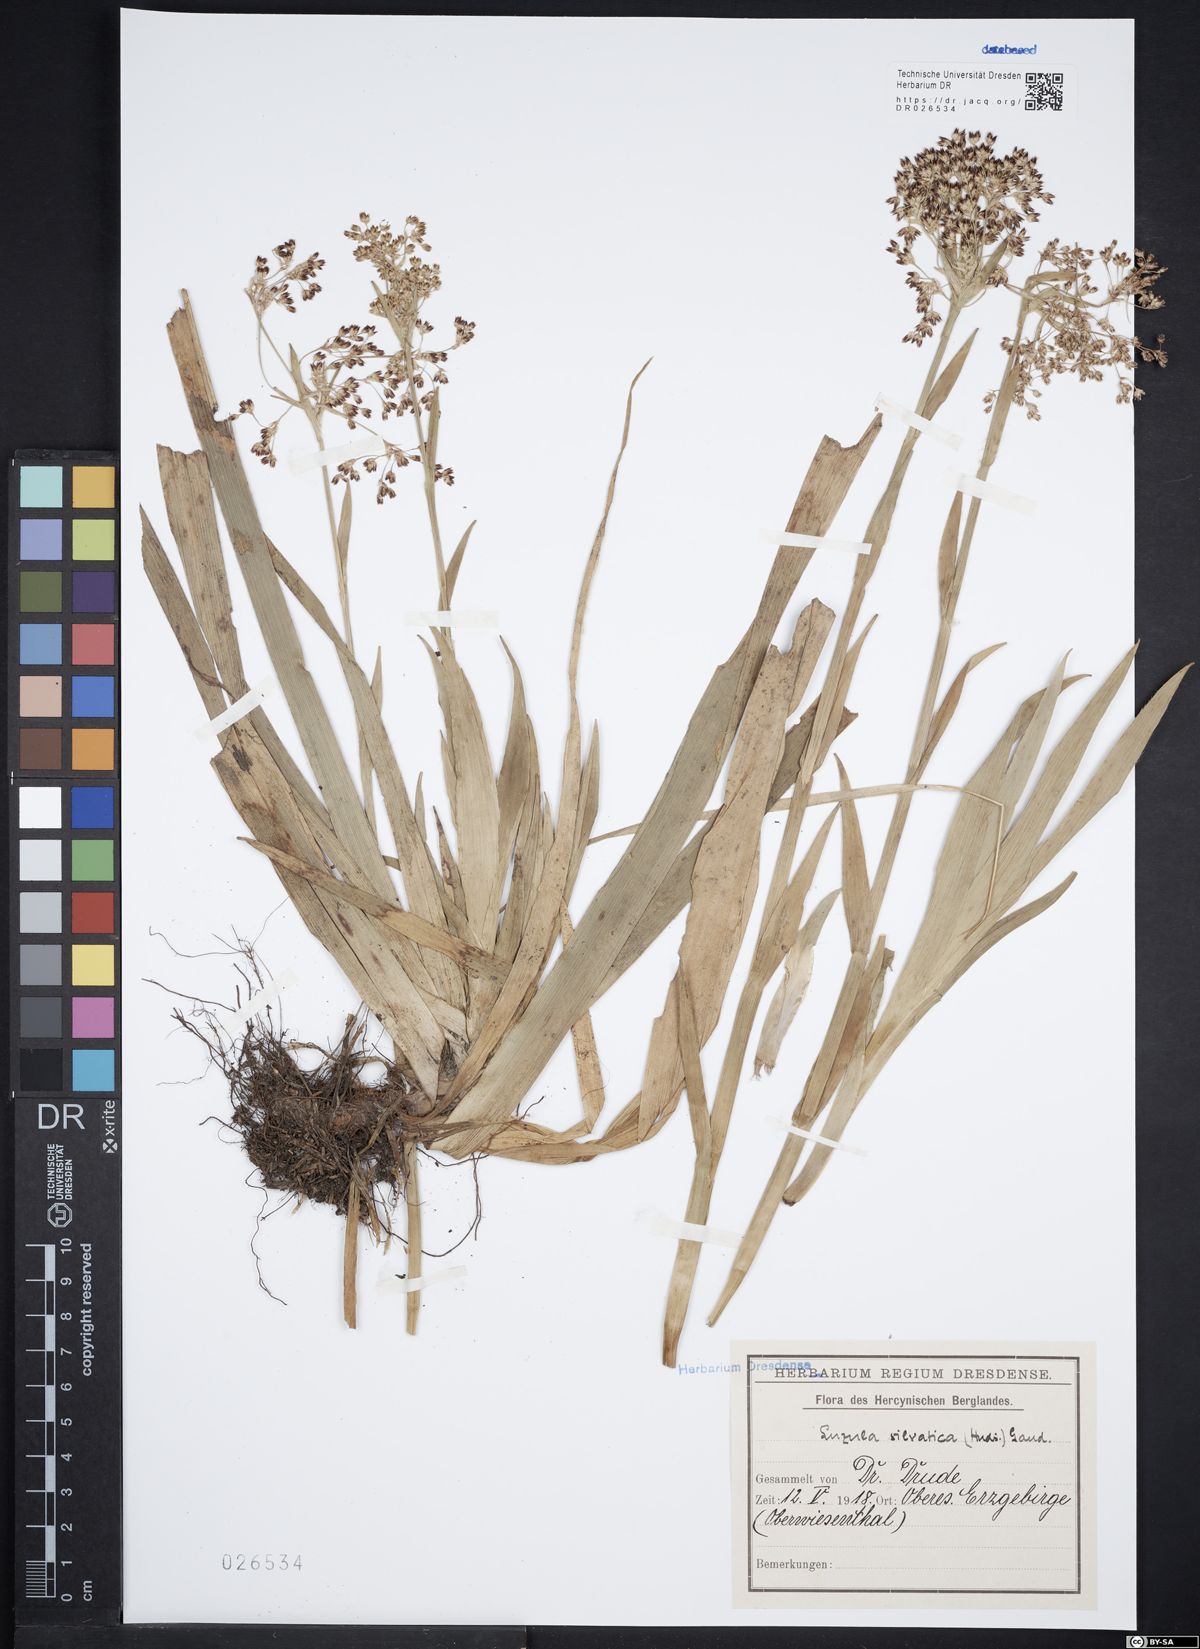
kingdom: Plantae
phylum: Tracheophyta
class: Liliopsida
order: Poales
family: Juncaceae
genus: Luzula
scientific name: Luzula sylvatica
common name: Great wood-rush
